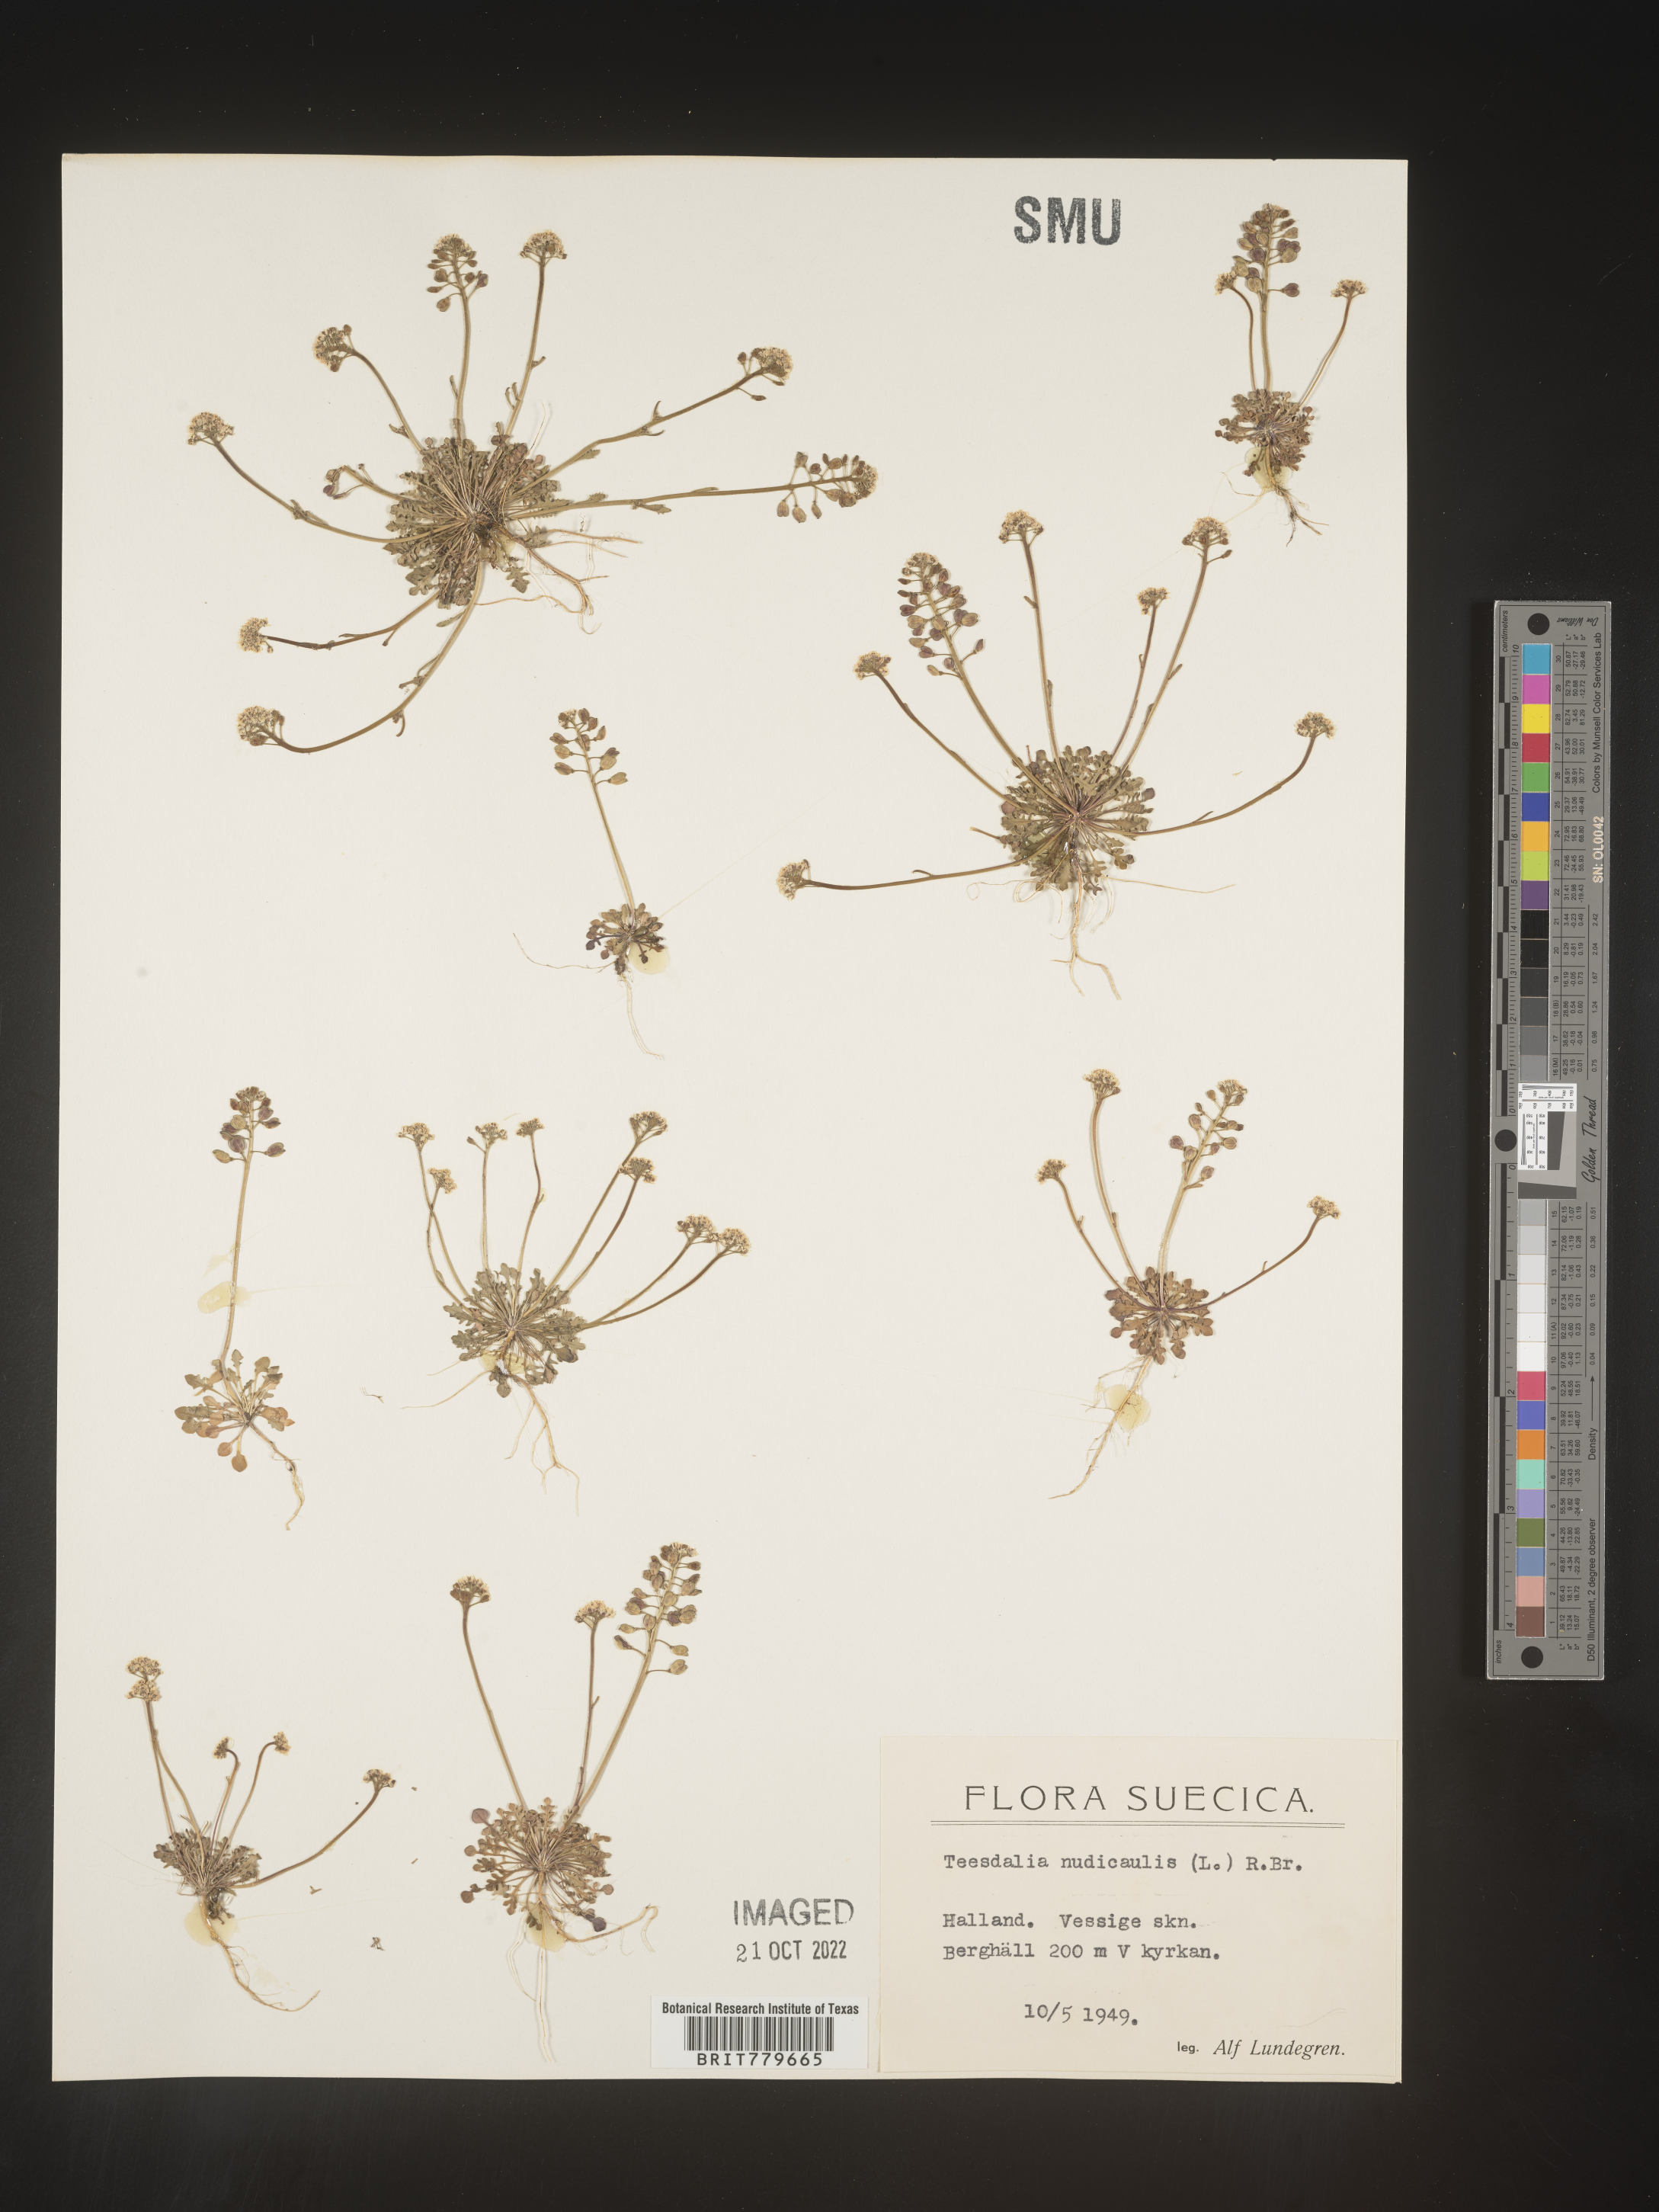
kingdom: Plantae
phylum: Tracheophyta
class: Magnoliopsida
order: Brassicales
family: Brassicaceae
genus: Teesdalia
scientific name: Teesdalia
